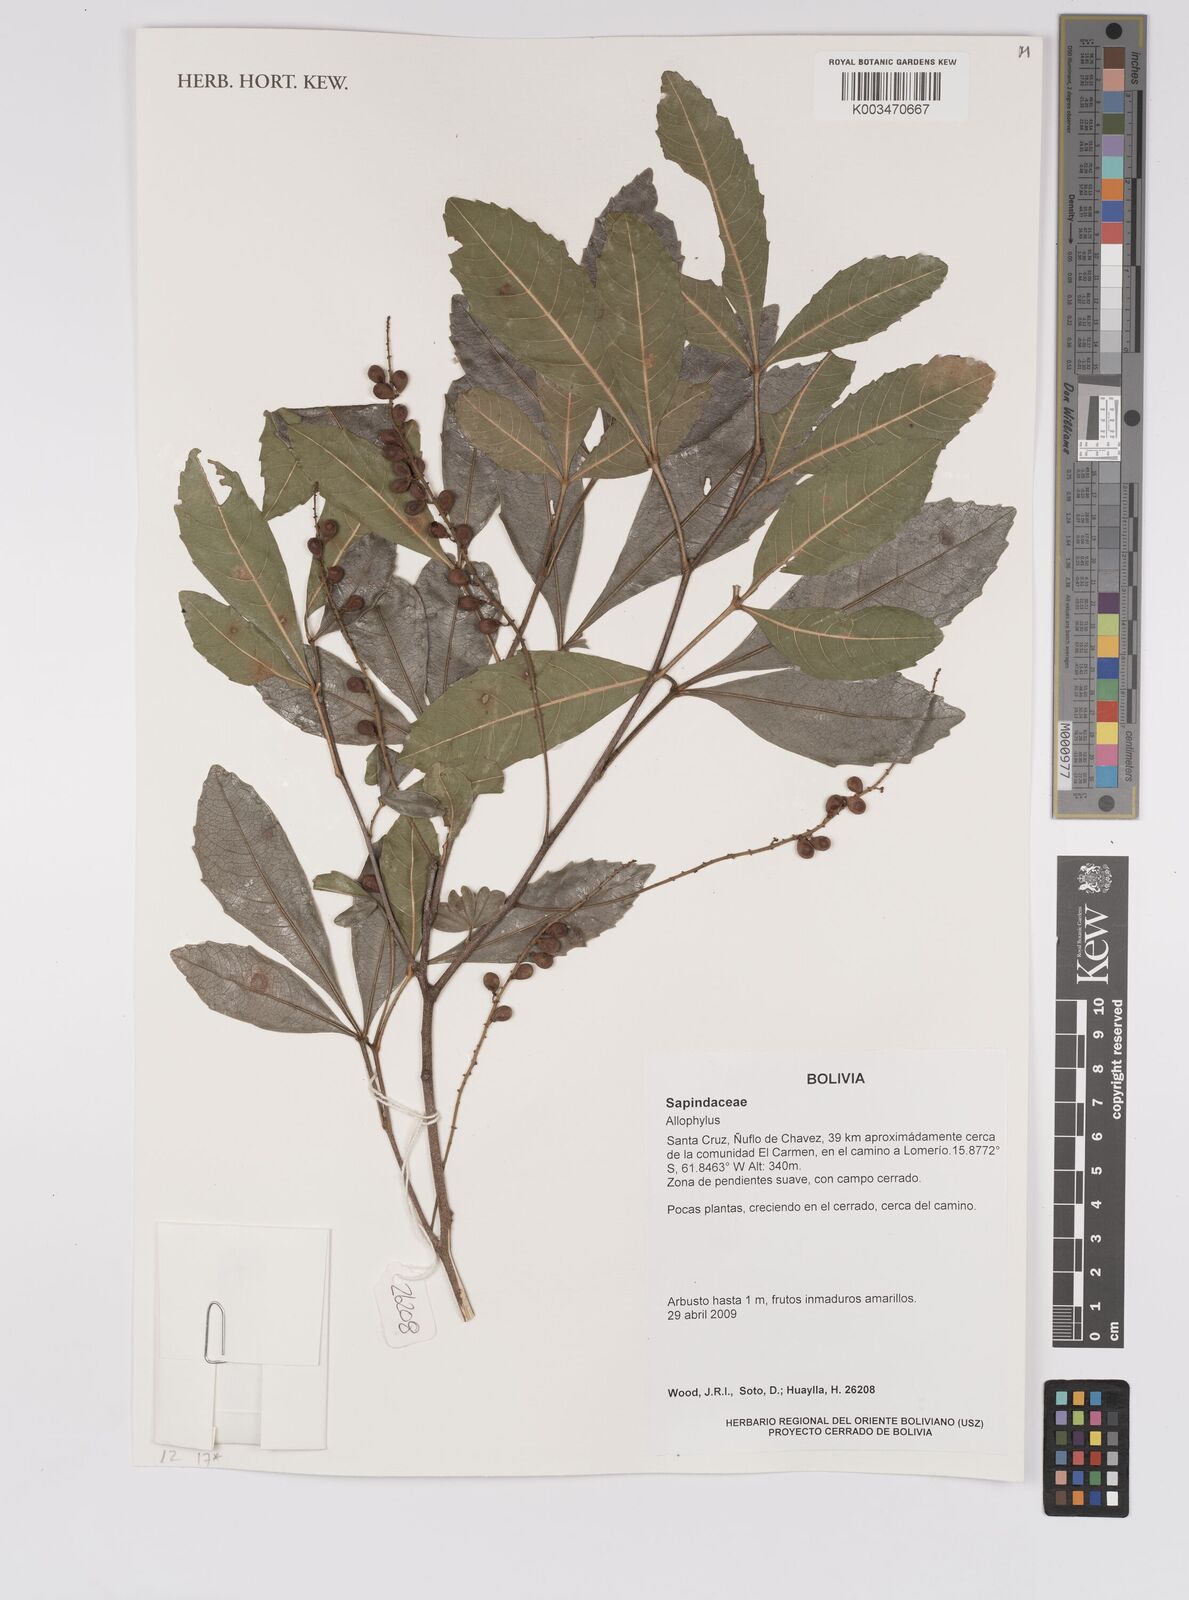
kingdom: Plantae
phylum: Tracheophyta
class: Magnoliopsida
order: Sapindales
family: Sapindaceae
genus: Allophylus
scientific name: Allophylus
